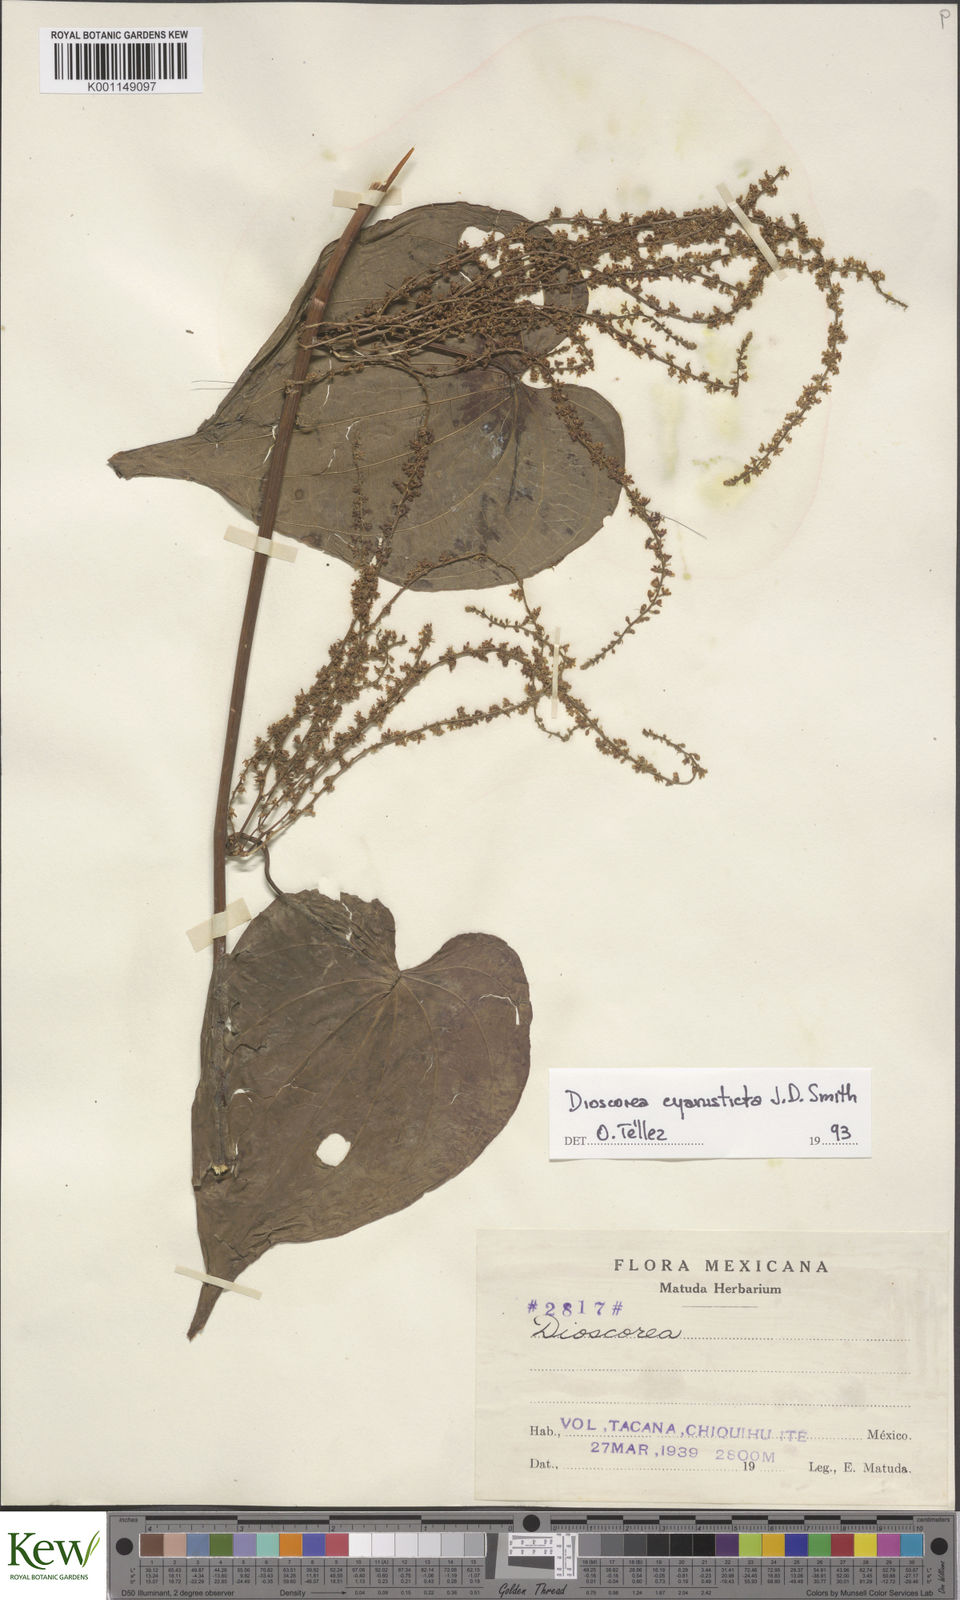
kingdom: Plantae
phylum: Tracheophyta
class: Liliopsida
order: Dioscoreales
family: Dioscoreaceae
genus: Dioscorea
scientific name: Dioscorea
